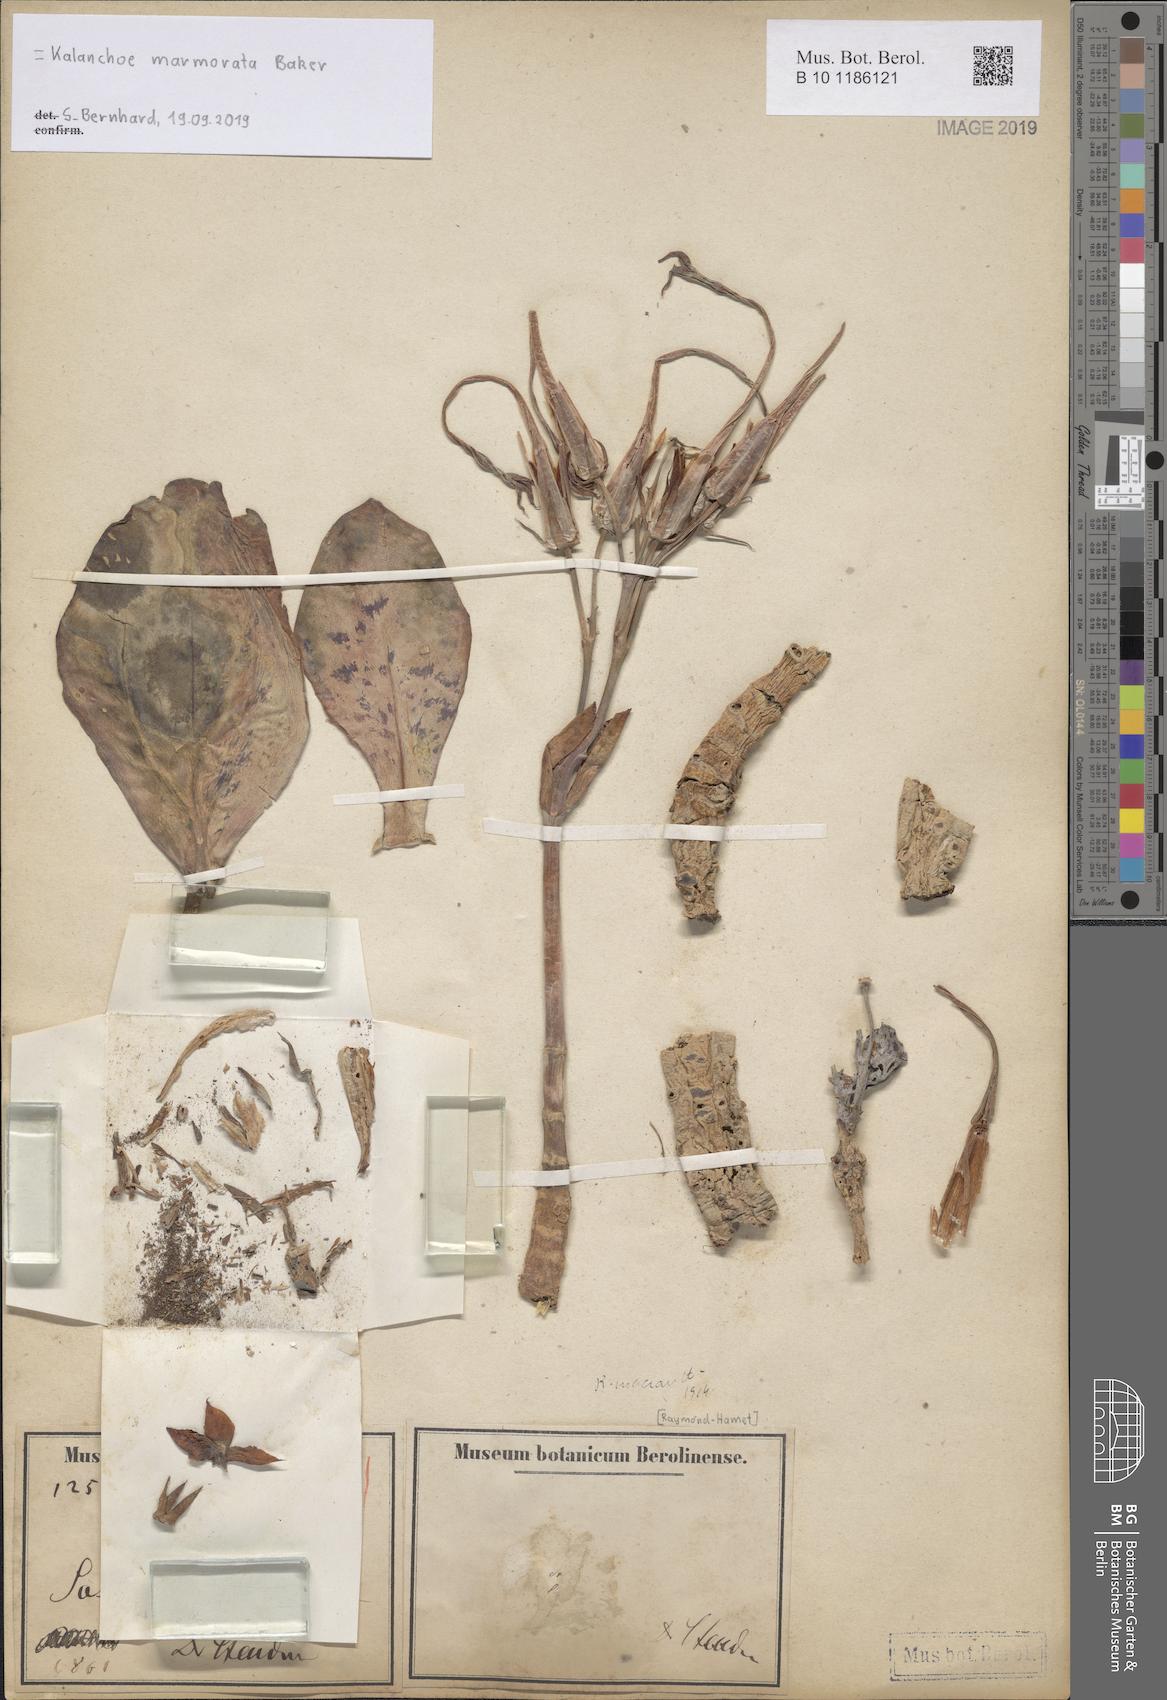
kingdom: Plantae
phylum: Tracheophyta
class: Magnoliopsida
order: Saxifragales
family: Crassulaceae
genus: Kalanchoe
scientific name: Kalanchoe marmorata
